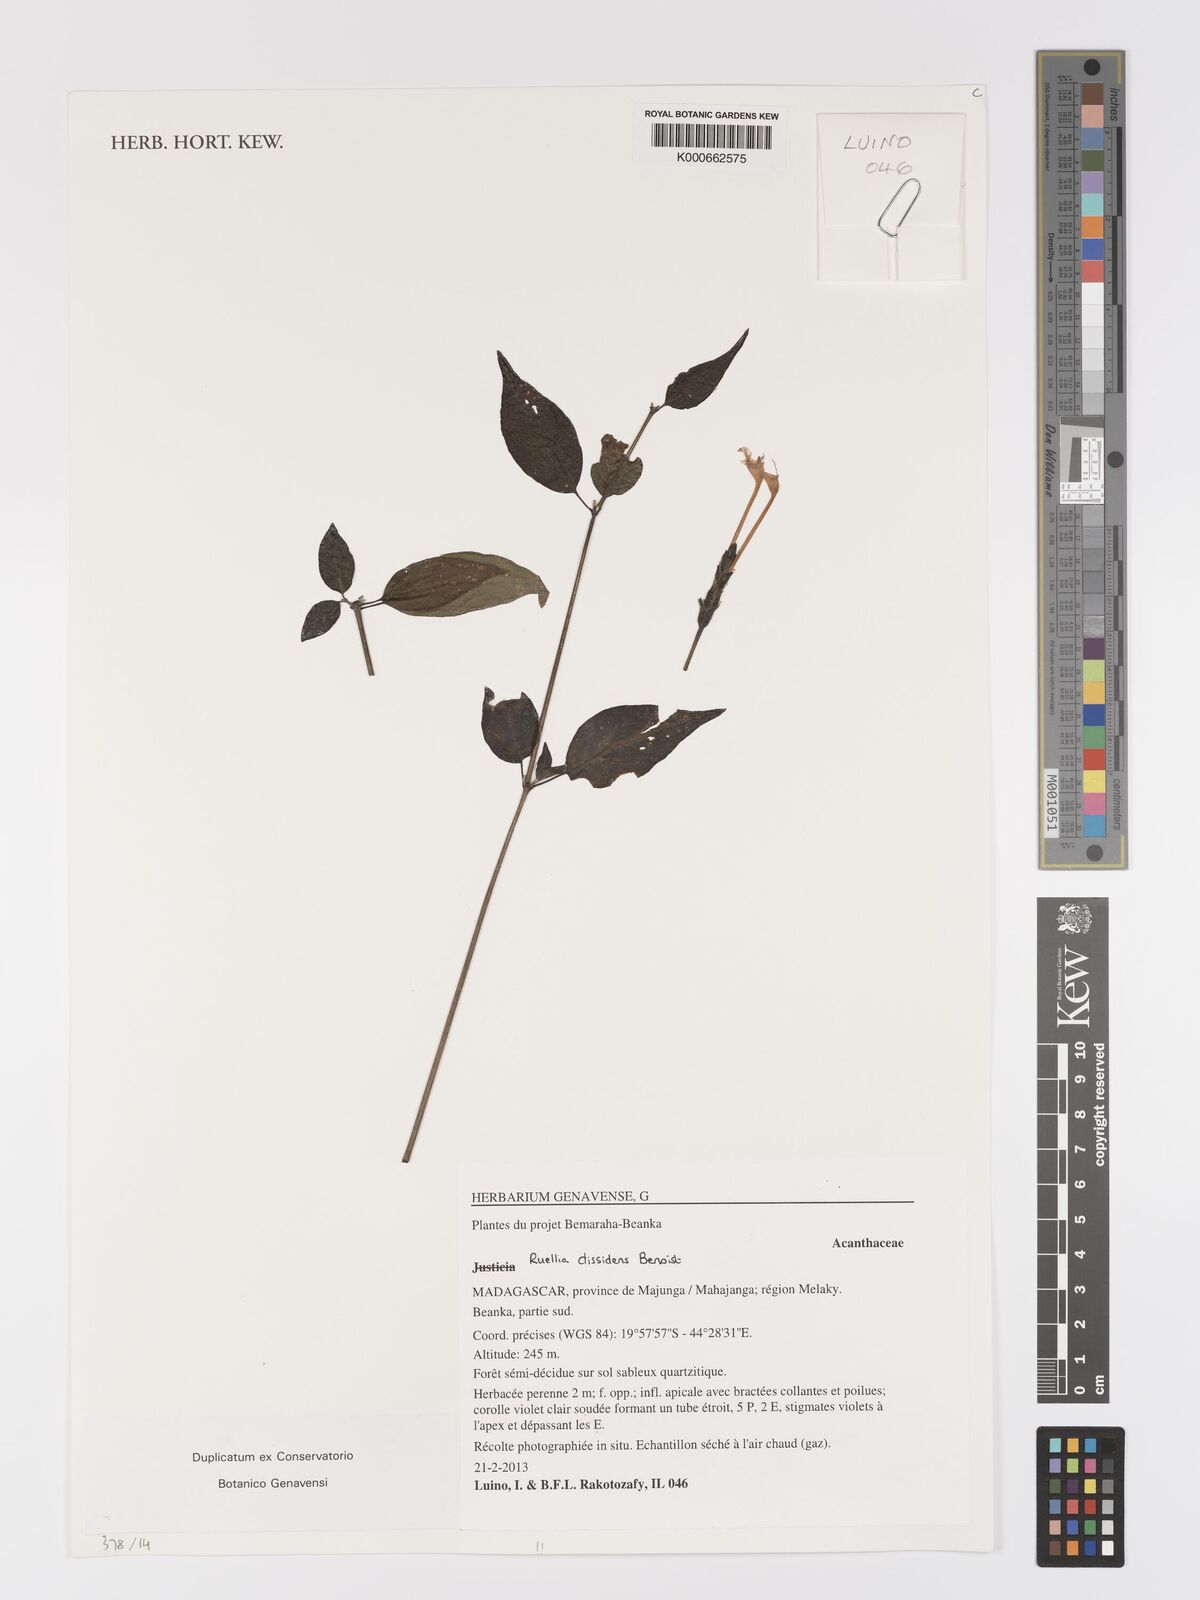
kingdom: Plantae
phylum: Tracheophyta
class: Magnoliopsida
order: Lamiales
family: Acanthaceae
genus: Ruellia
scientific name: Ruellia dissidens
